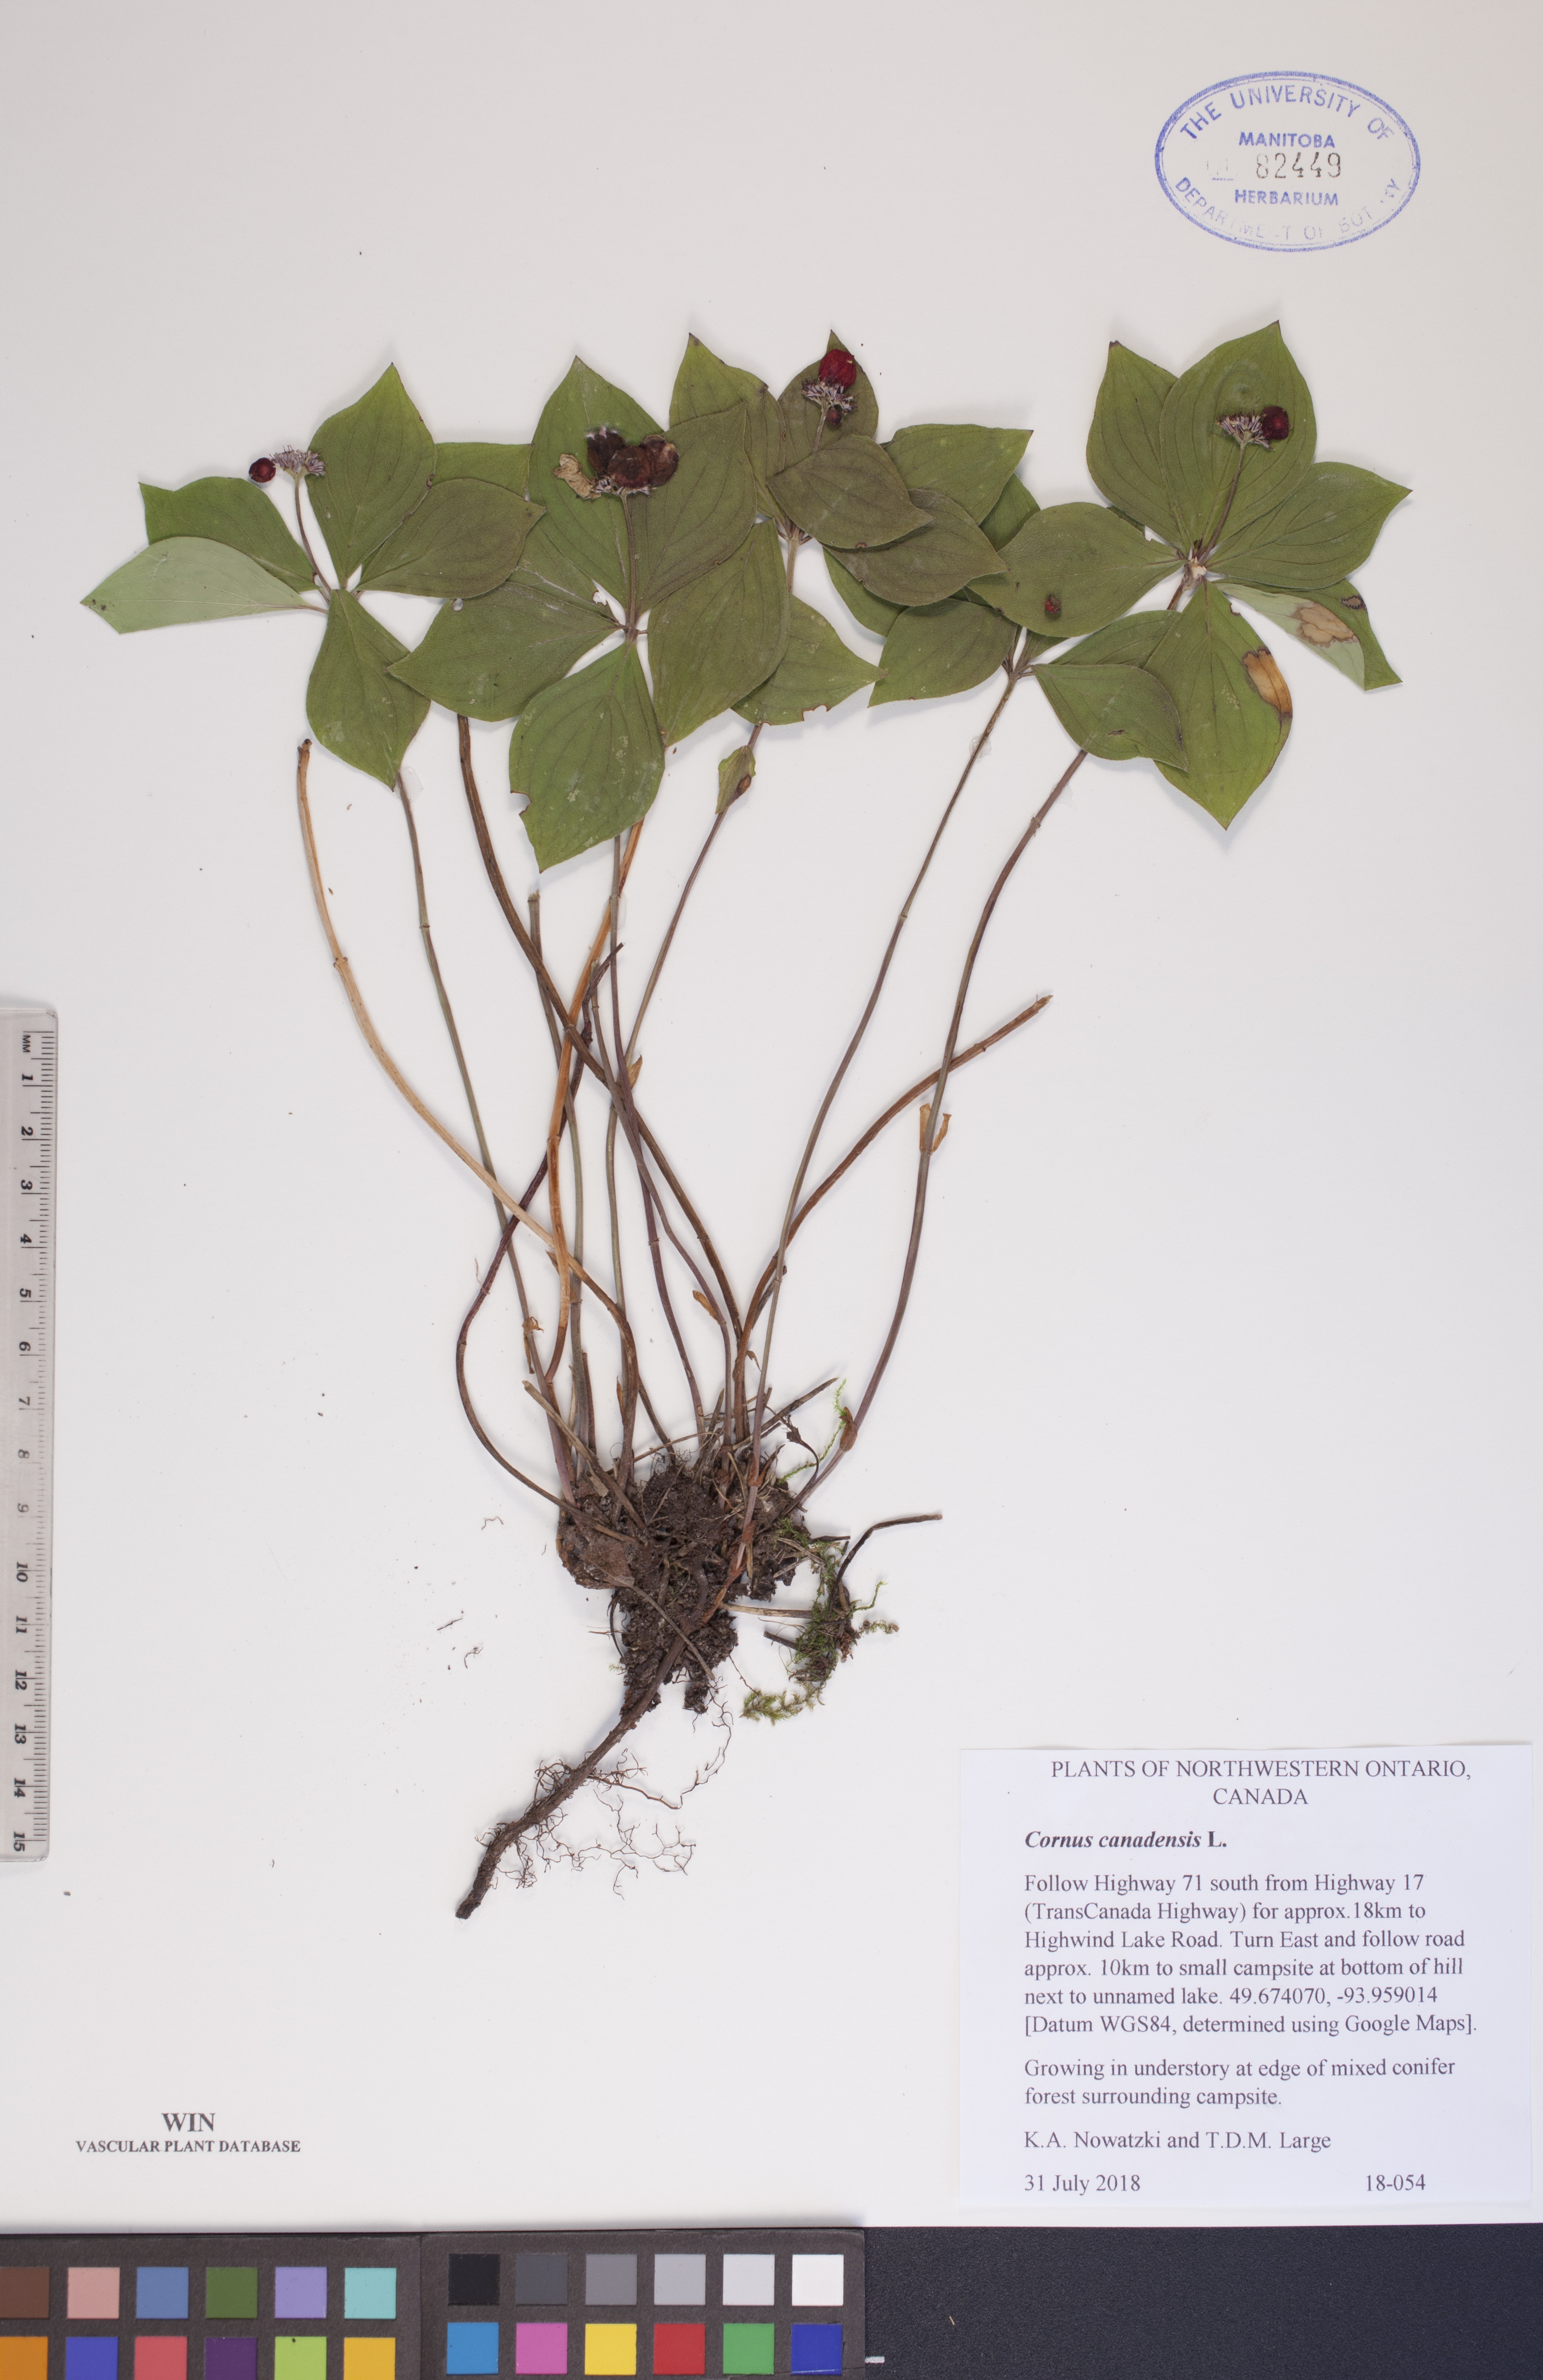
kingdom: Plantae
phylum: Tracheophyta
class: Magnoliopsida
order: Cornales
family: Cornaceae
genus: Cornus
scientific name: Cornus canadensis
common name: Creeping dogwood
